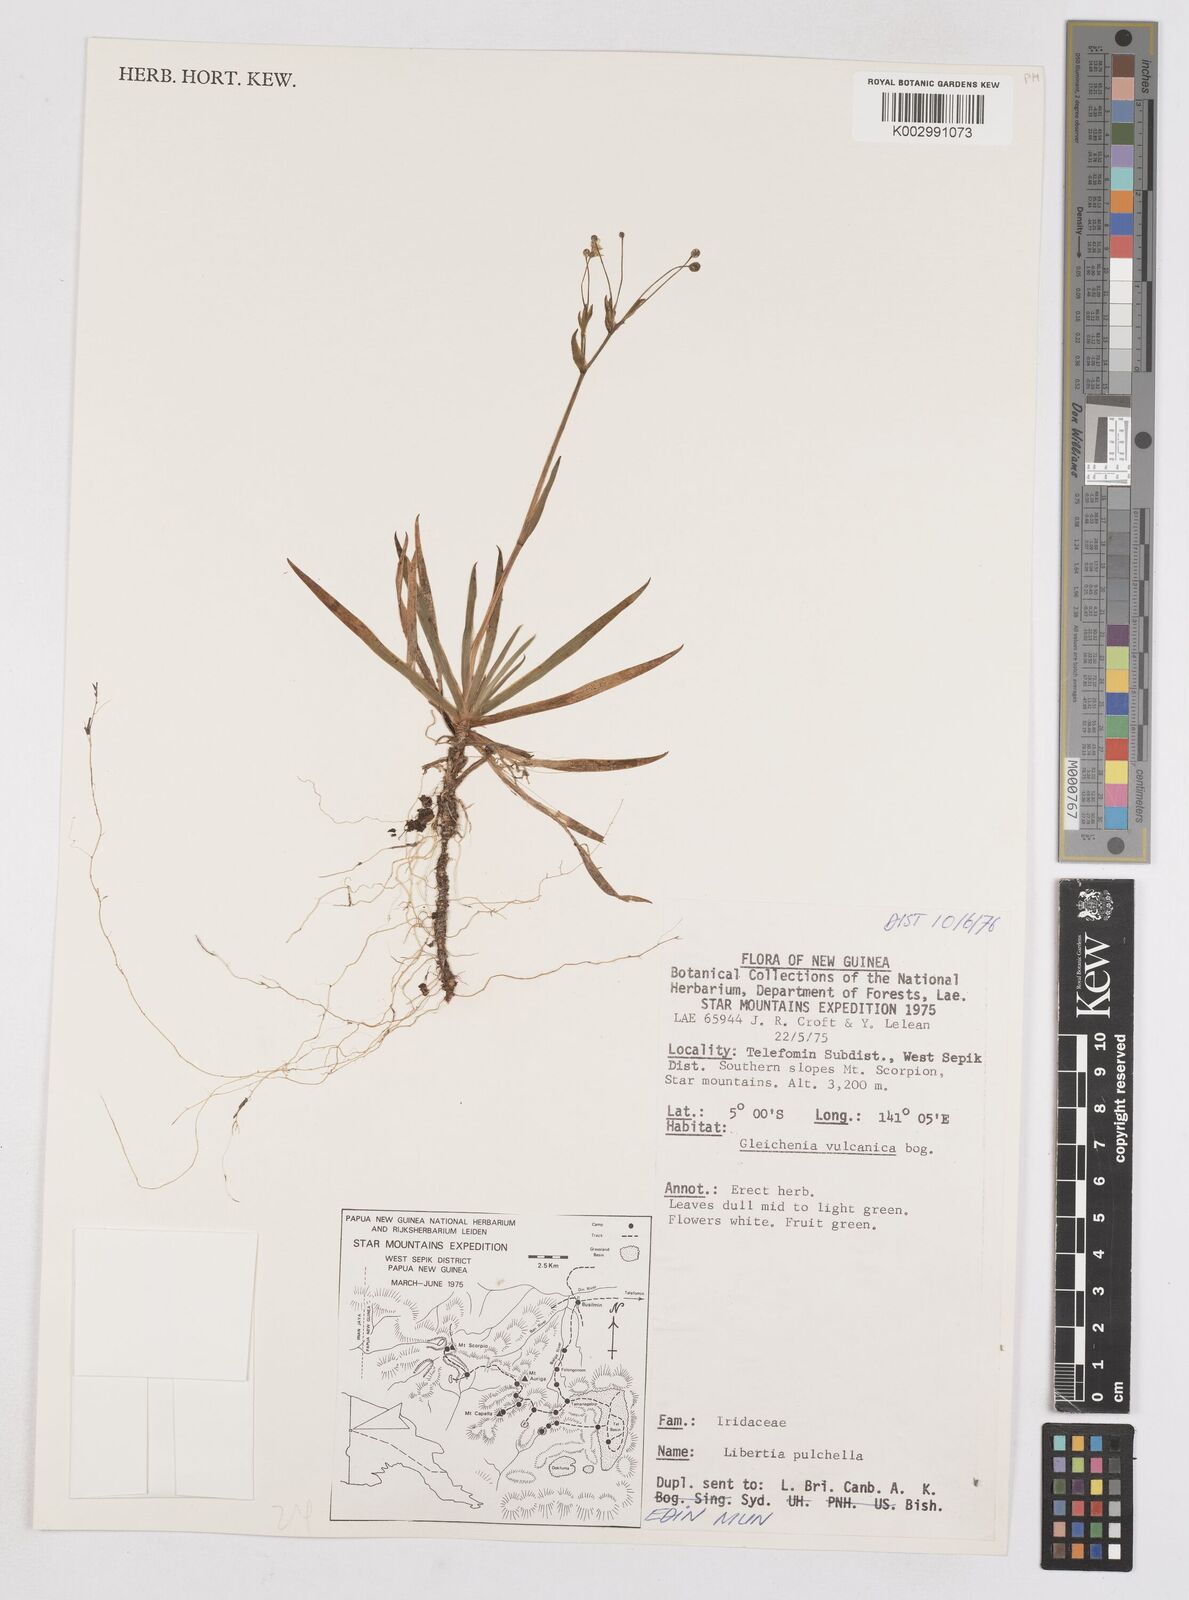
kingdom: Plantae
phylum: Tracheophyta
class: Liliopsida
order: Asparagales
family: Iridaceae
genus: Libertia
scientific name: Libertia pulchella
